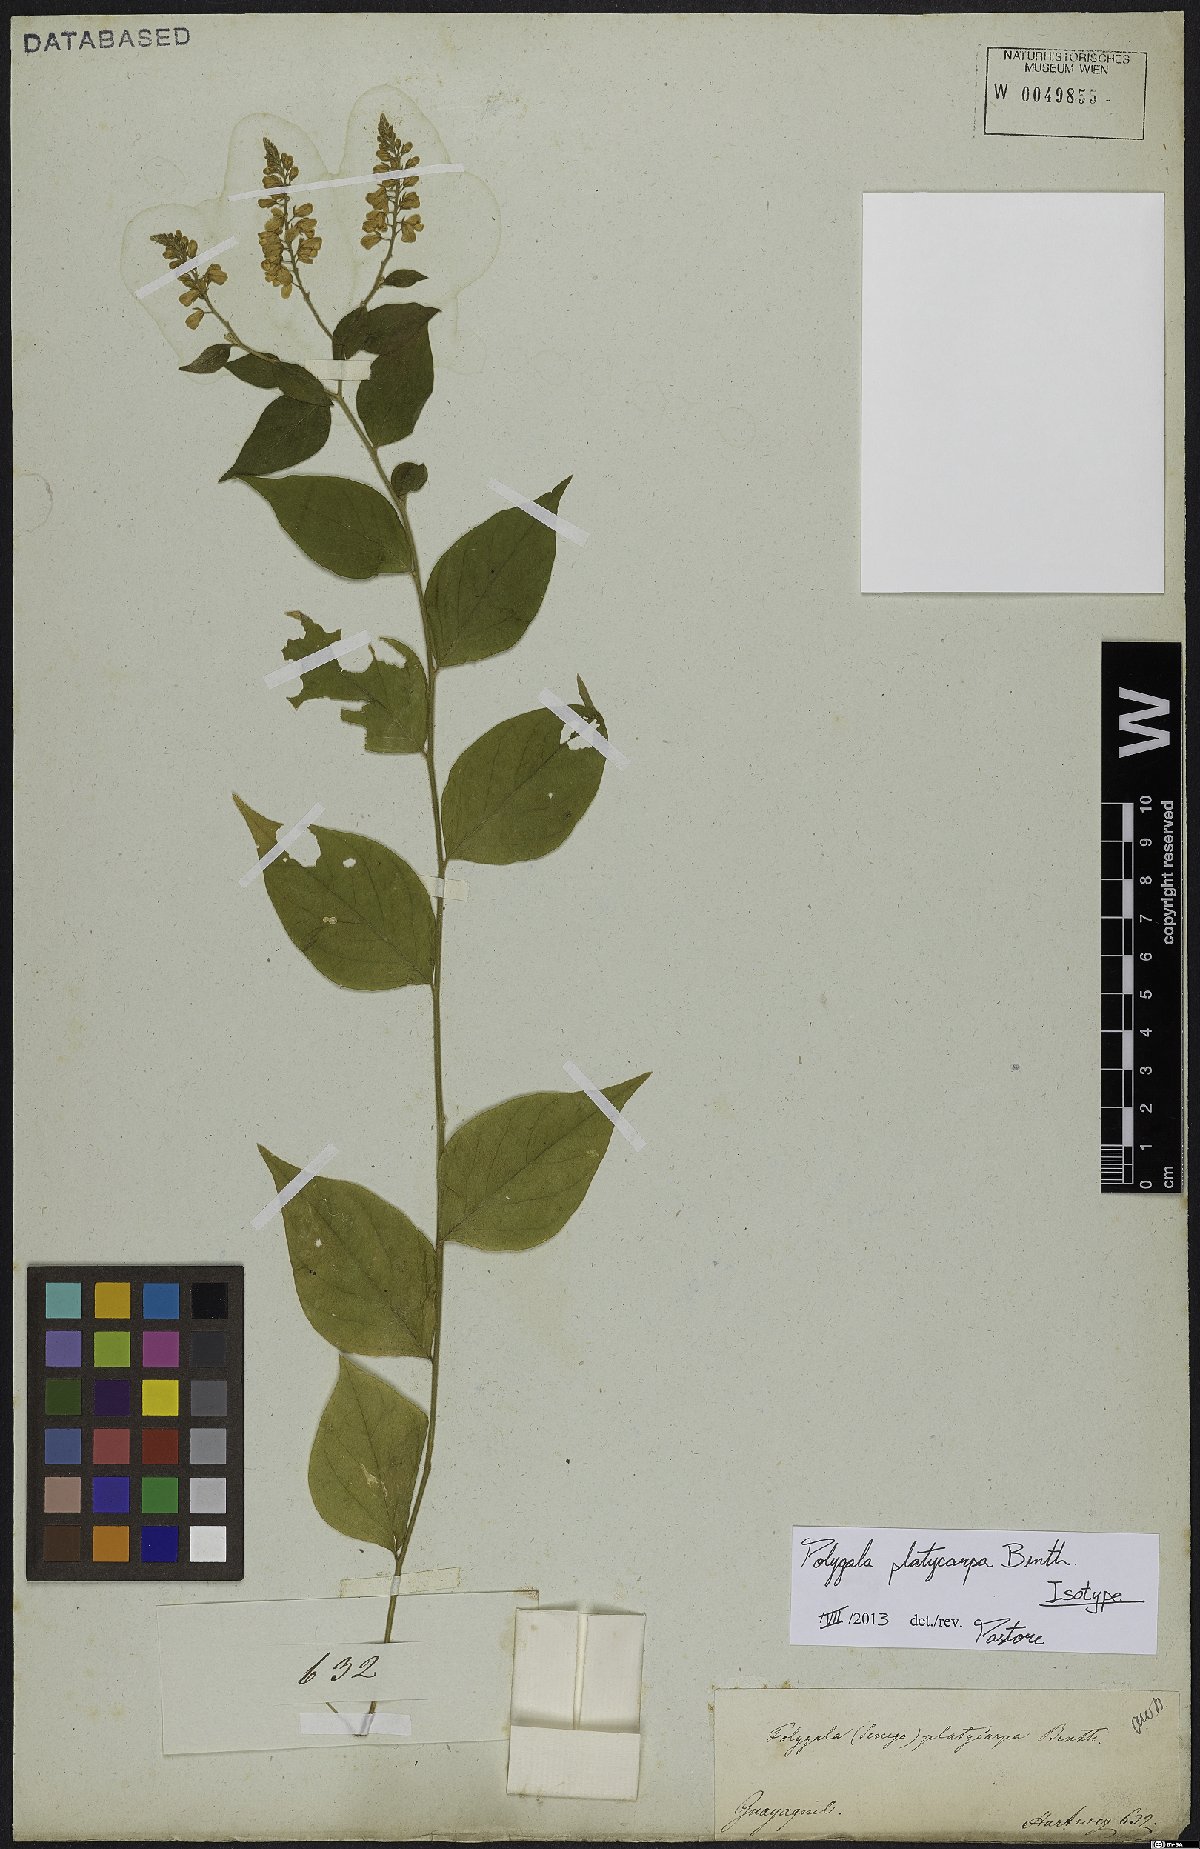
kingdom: Plantae
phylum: Tracheophyta
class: Magnoliopsida
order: Fabales
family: Polygalaceae
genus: Hebecarpa
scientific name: Hebecarpa platycarpa
